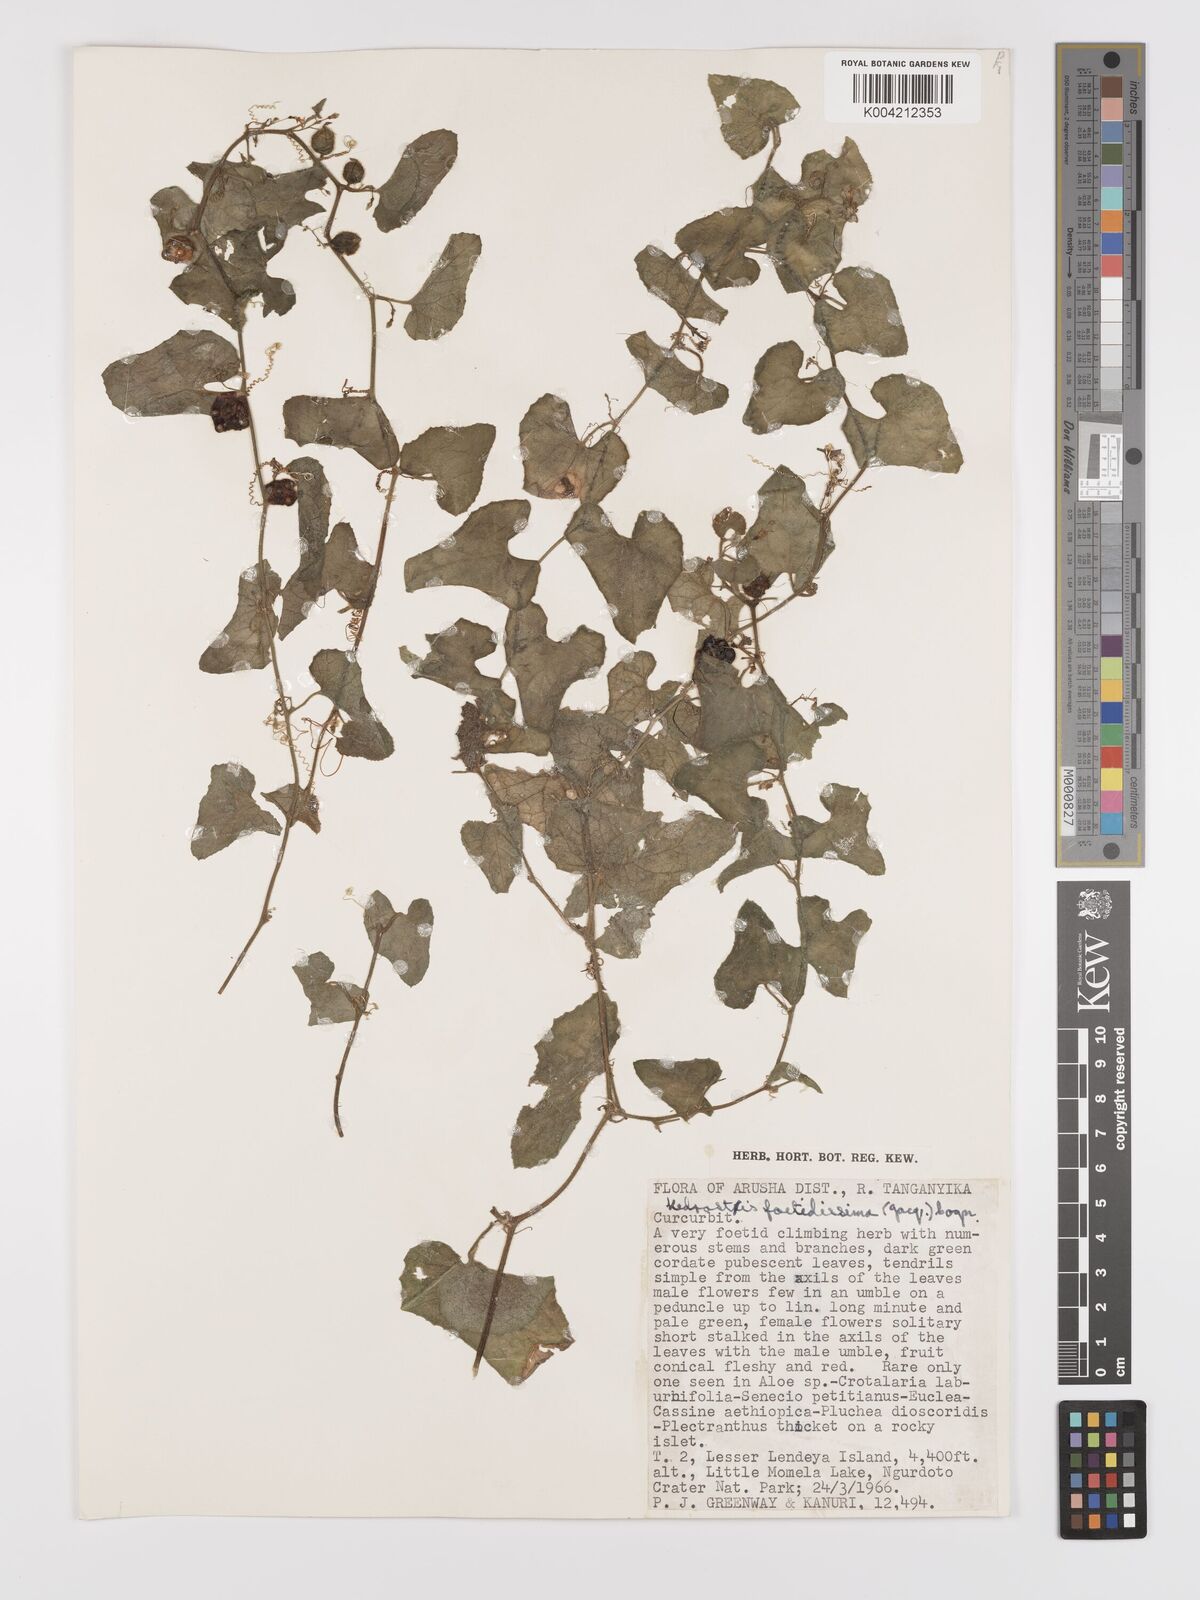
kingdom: Plantae
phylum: Tracheophyta
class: Magnoliopsida
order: Cucurbitales
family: Cucurbitaceae
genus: Kedrostis
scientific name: Kedrostis foetidissima
